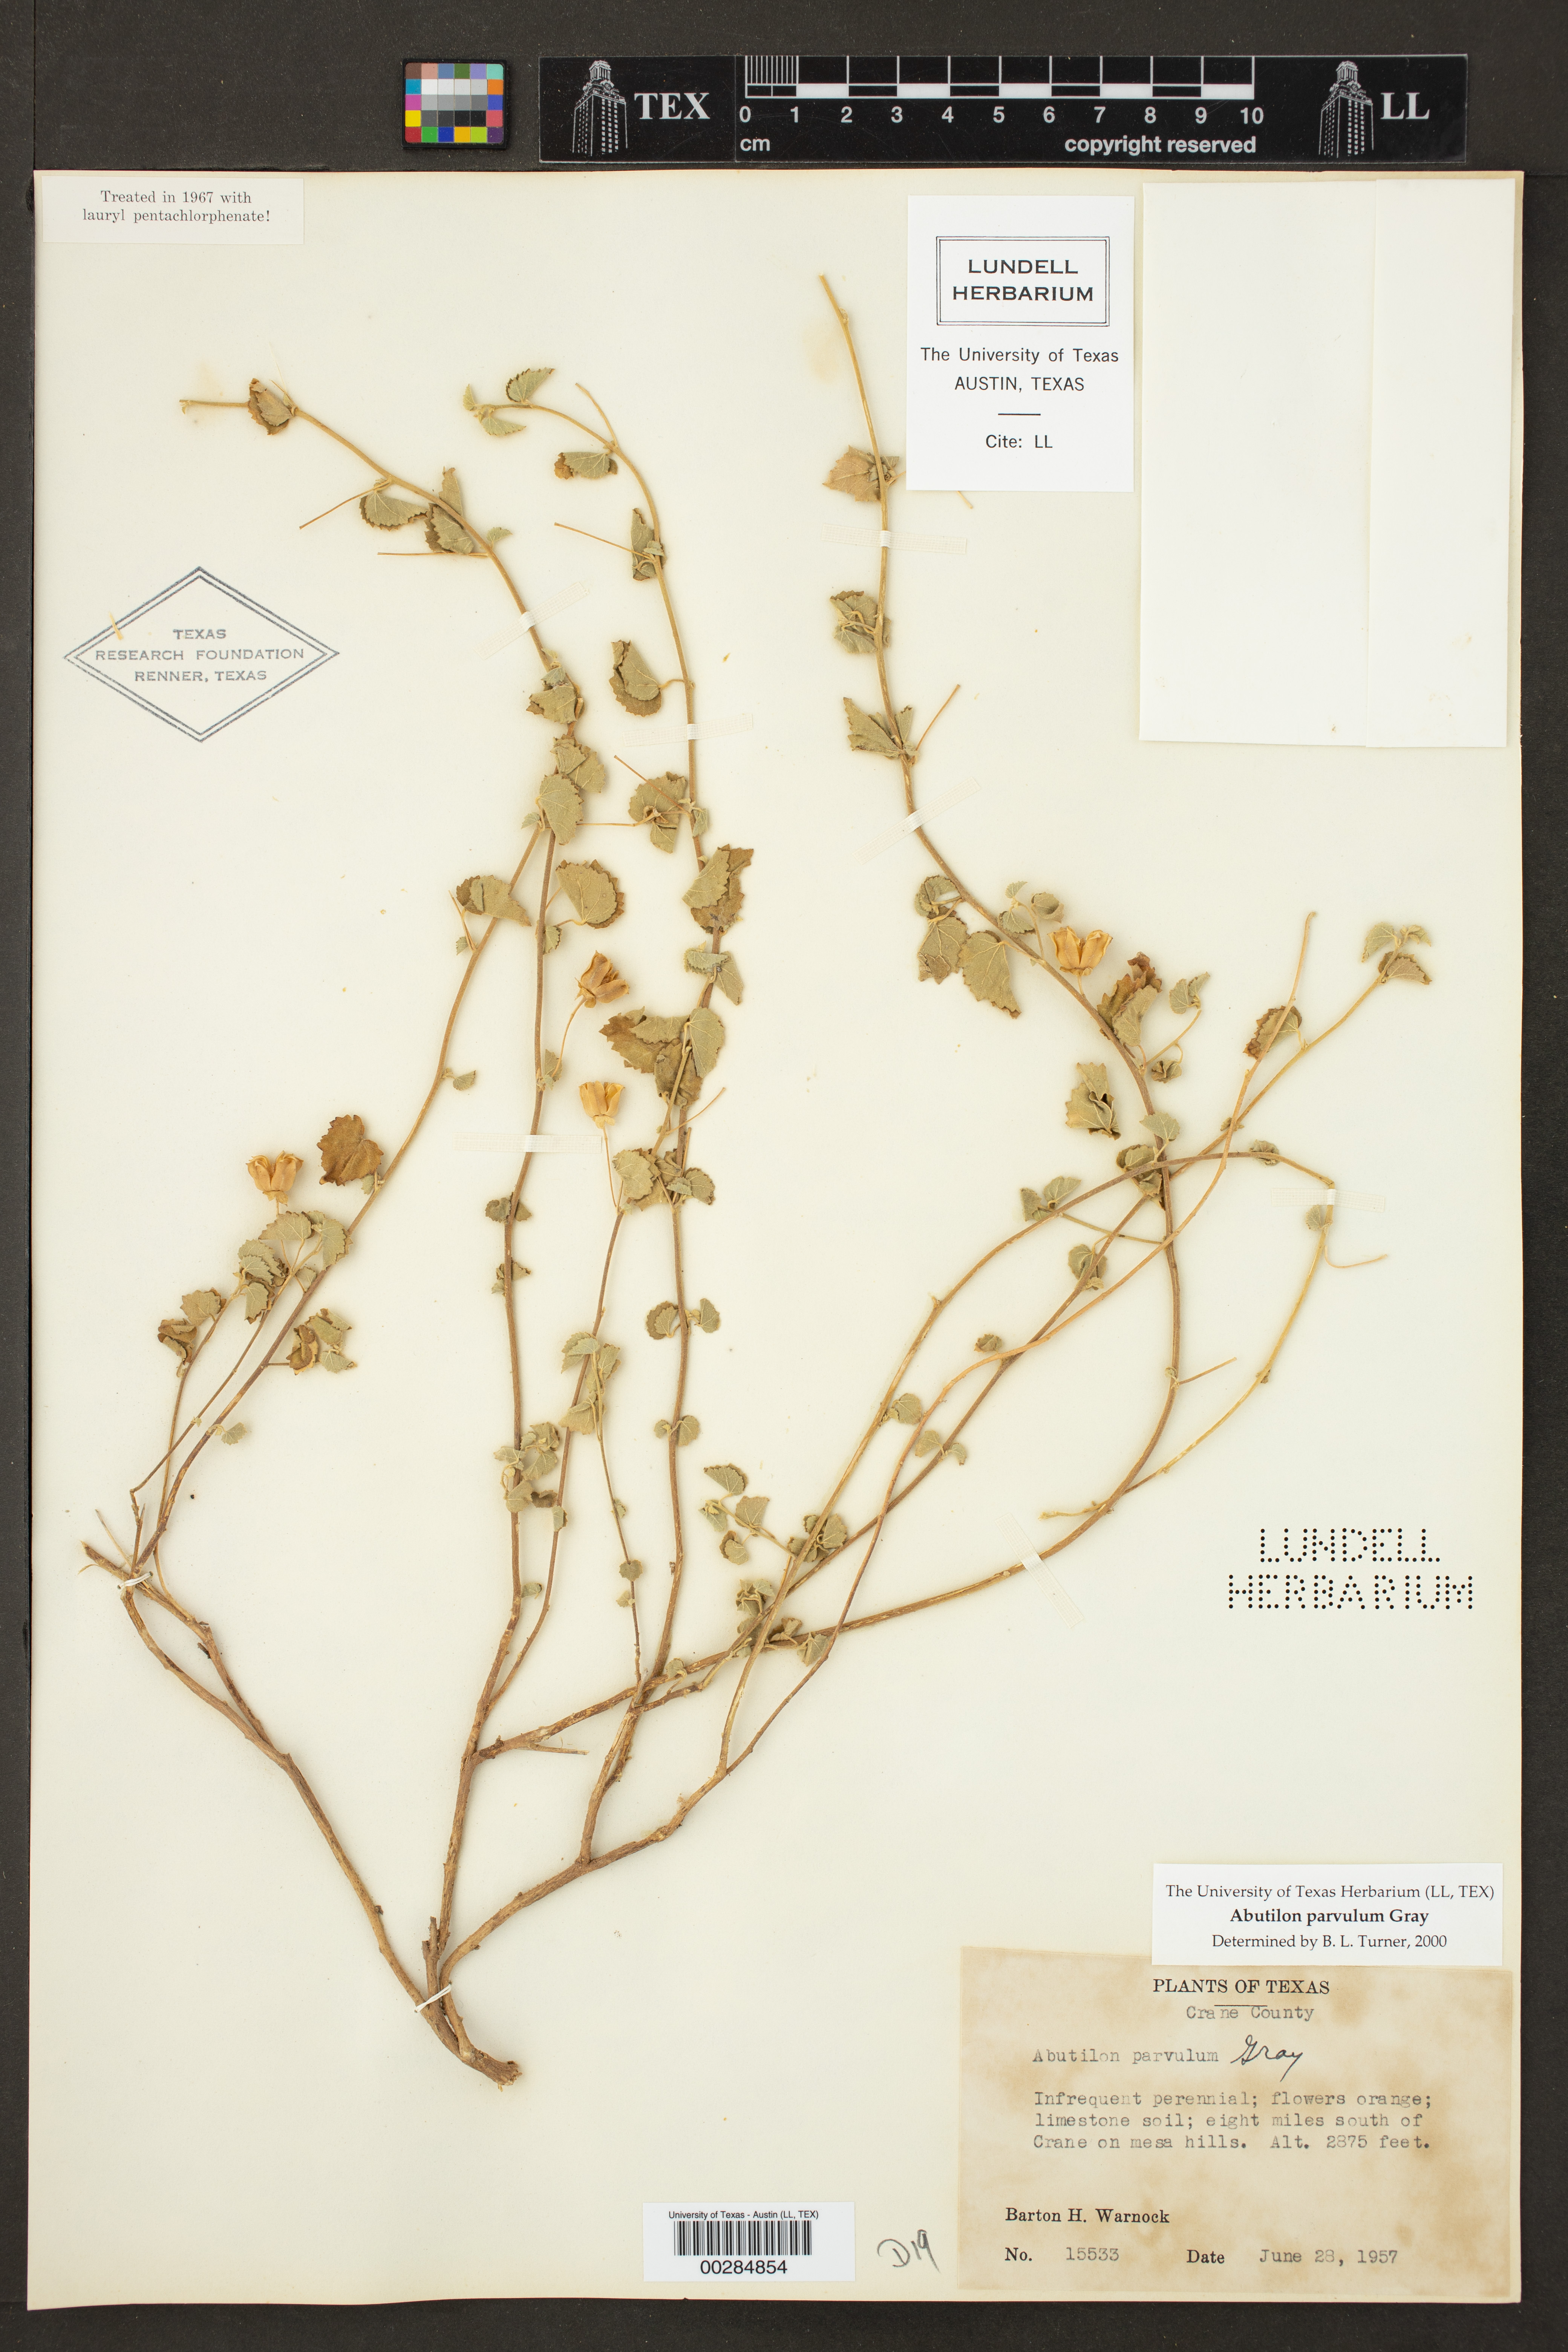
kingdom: Plantae
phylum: Tracheophyta
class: Magnoliopsida
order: Malvales
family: Malvaceae
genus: Abutilon
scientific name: Abutilon parvulum
